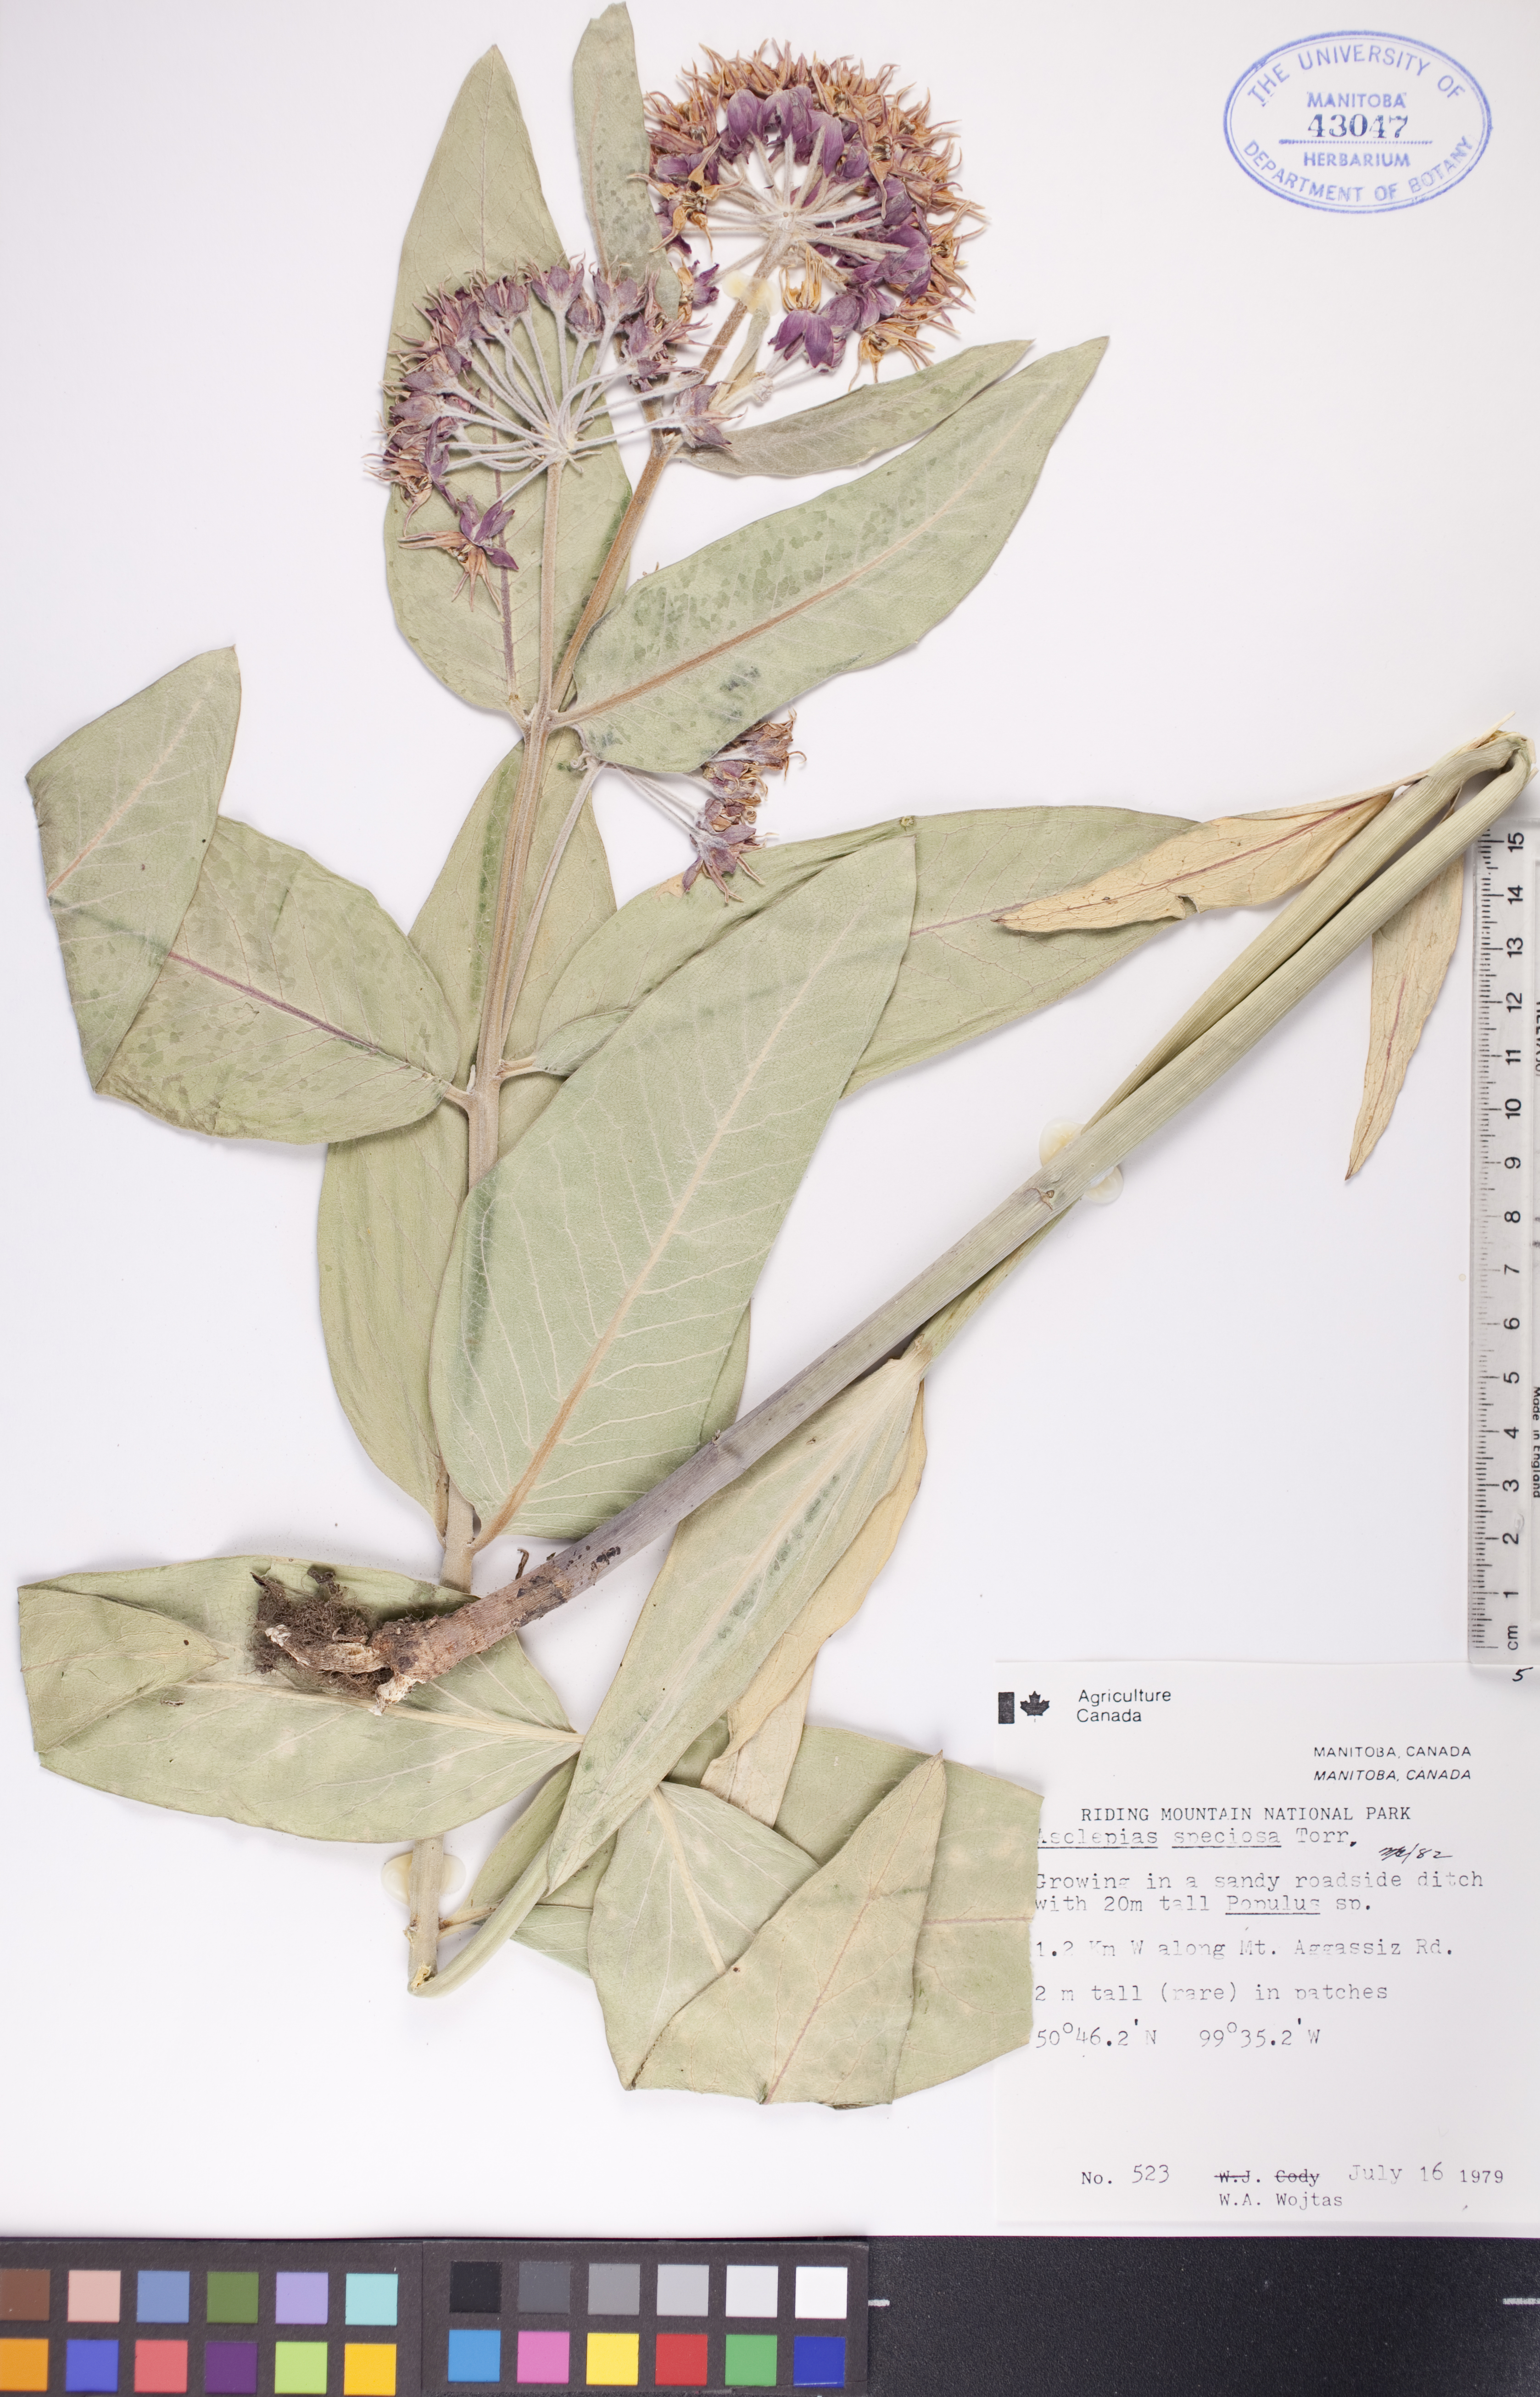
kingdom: Plantae
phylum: Tracheophyta
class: Magnoliopsida
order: Gentianales
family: Apocynaceae
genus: Asclepias
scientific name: Asclepias speciosa
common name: Showy milkweed
